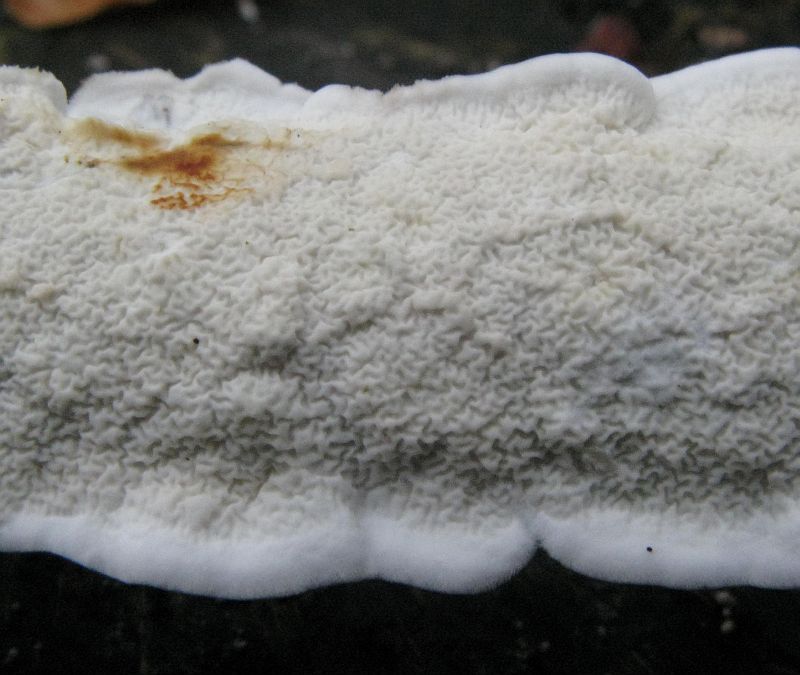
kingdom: Fungi
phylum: Basidiomycota
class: Agaricomycetes
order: Polyporales
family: Irpicaceae
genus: Byssomerulius
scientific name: Byssomerulius corium
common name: læder-åresvamp
